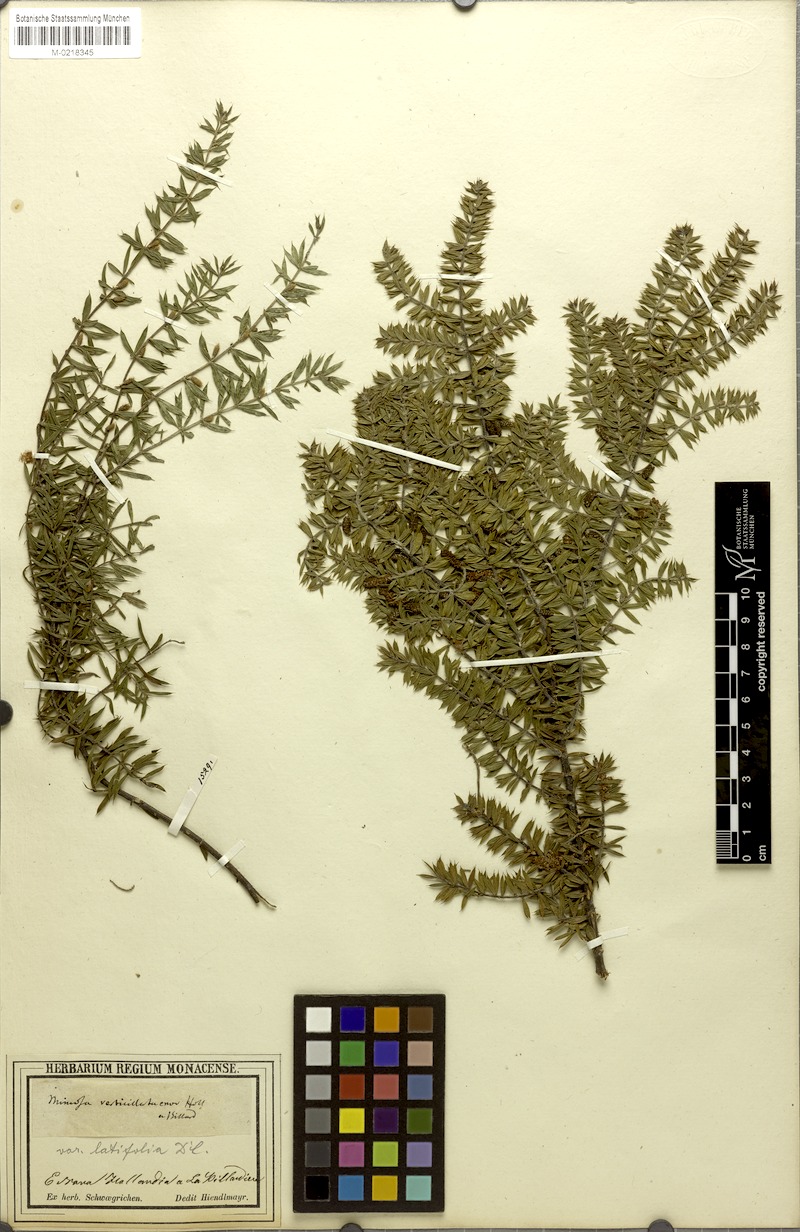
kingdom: Plantae
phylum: Tracheophyta
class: Magnoliopsida
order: Fabales
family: Fabaceae
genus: Acacia
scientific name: Acacia verticillata
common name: Prickly moses
